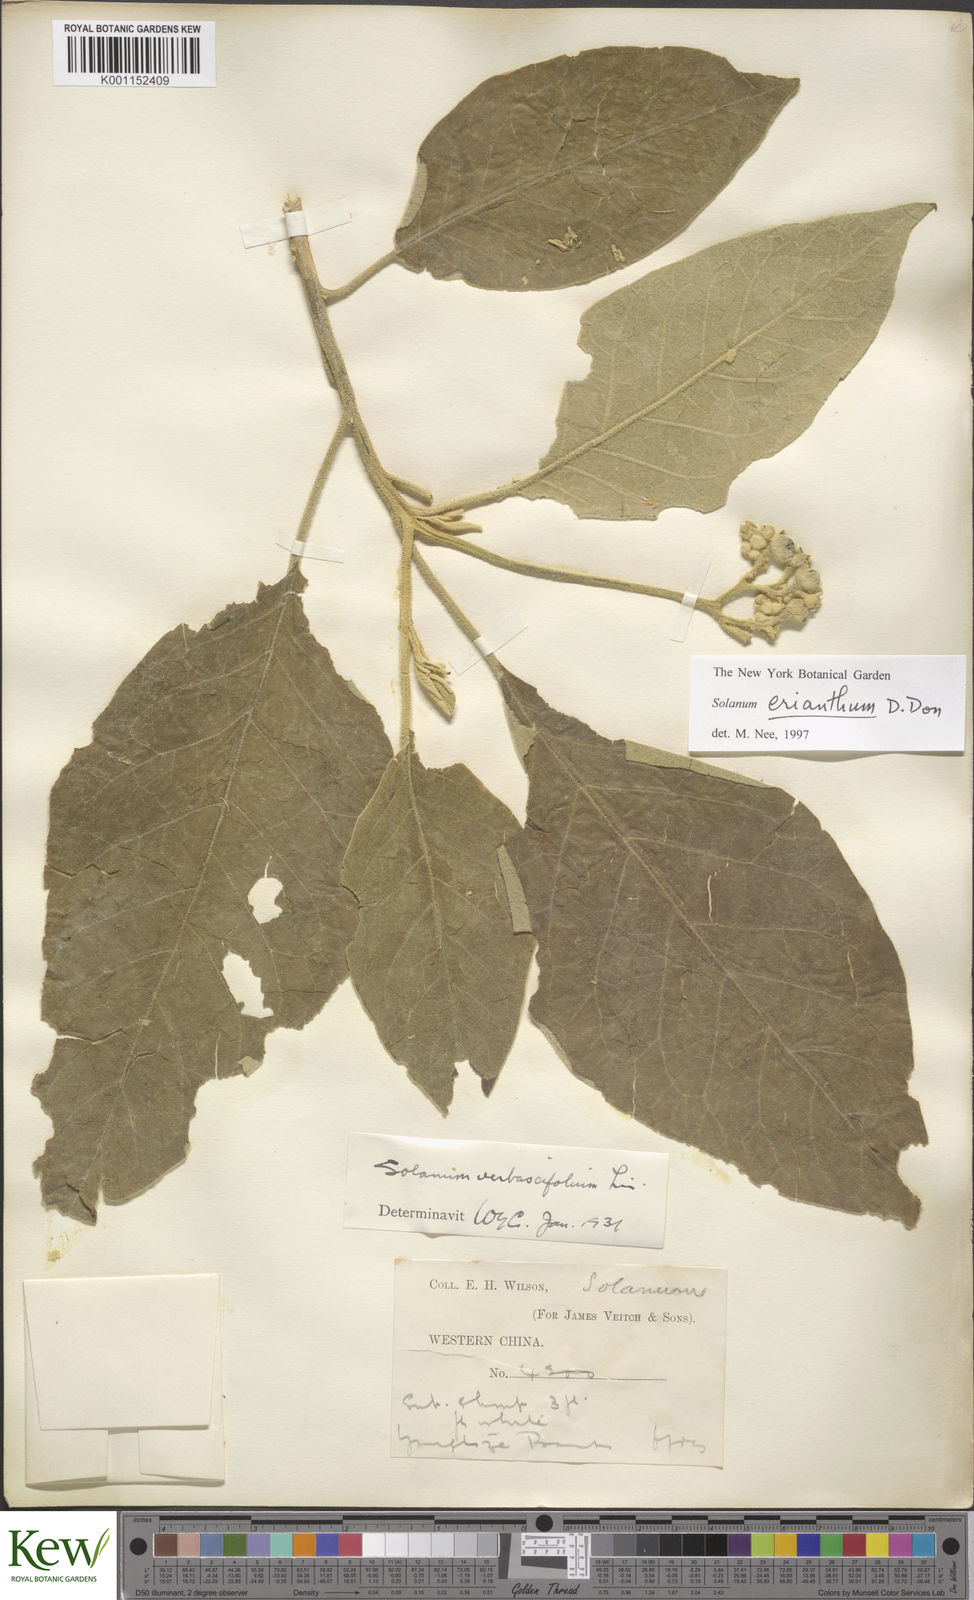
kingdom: Plantae
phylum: Tracheophyta
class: Magnoliopsida
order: Solanales
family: Solanaceae
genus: Solanum
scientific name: Solanum donianum
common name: Mullein nightshade
